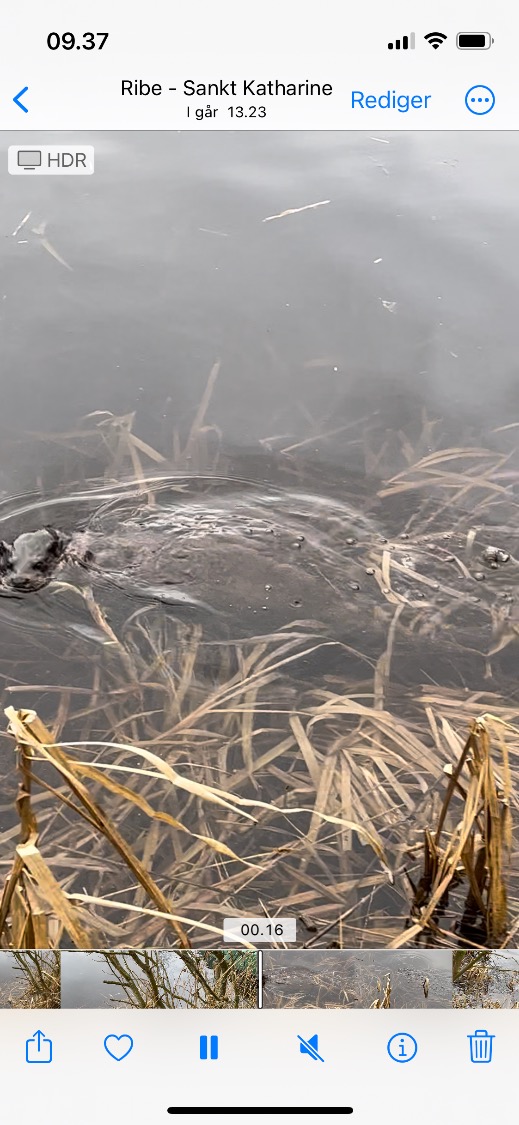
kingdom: Animalia
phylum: Chordata
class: Mammalia
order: Carnivora
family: Mustelidae
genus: Lutra
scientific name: Lutra lutra
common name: Odder
